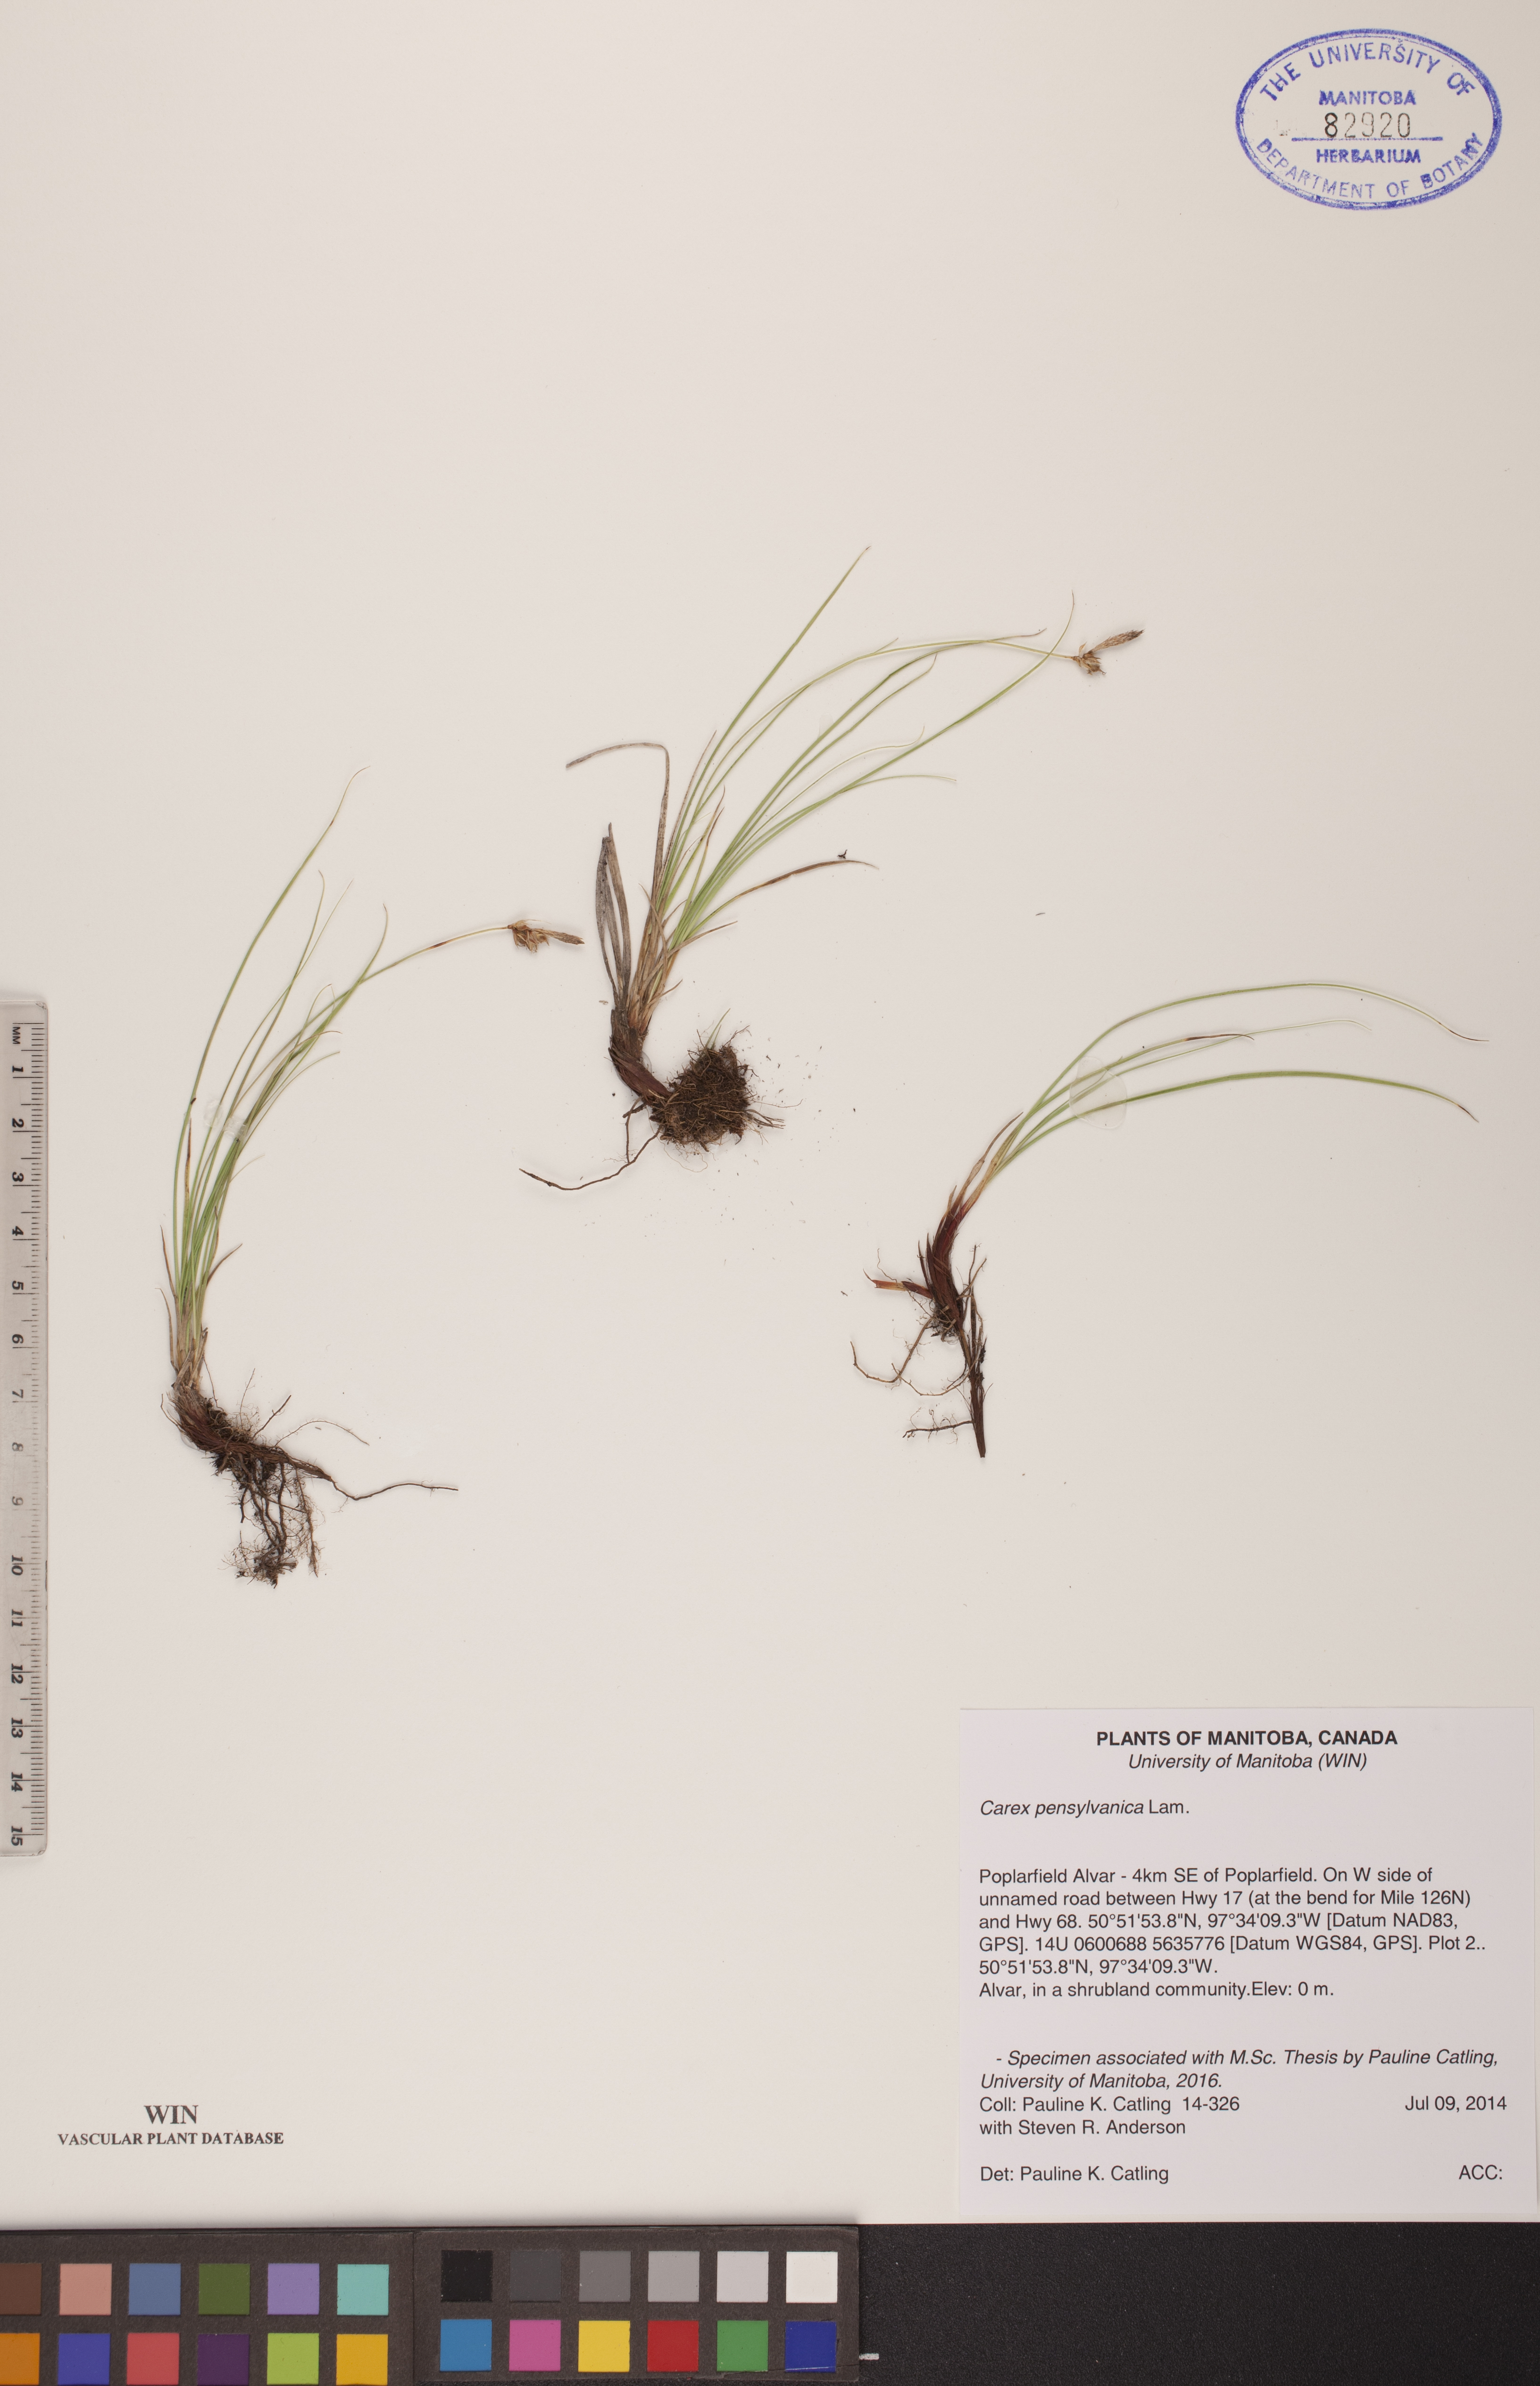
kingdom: Plantae
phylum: Tracheophyta
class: Liliopsida
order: Poales
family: Cyperaceae
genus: Carex
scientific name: Carex pensylvanica
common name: Common oak sedge
